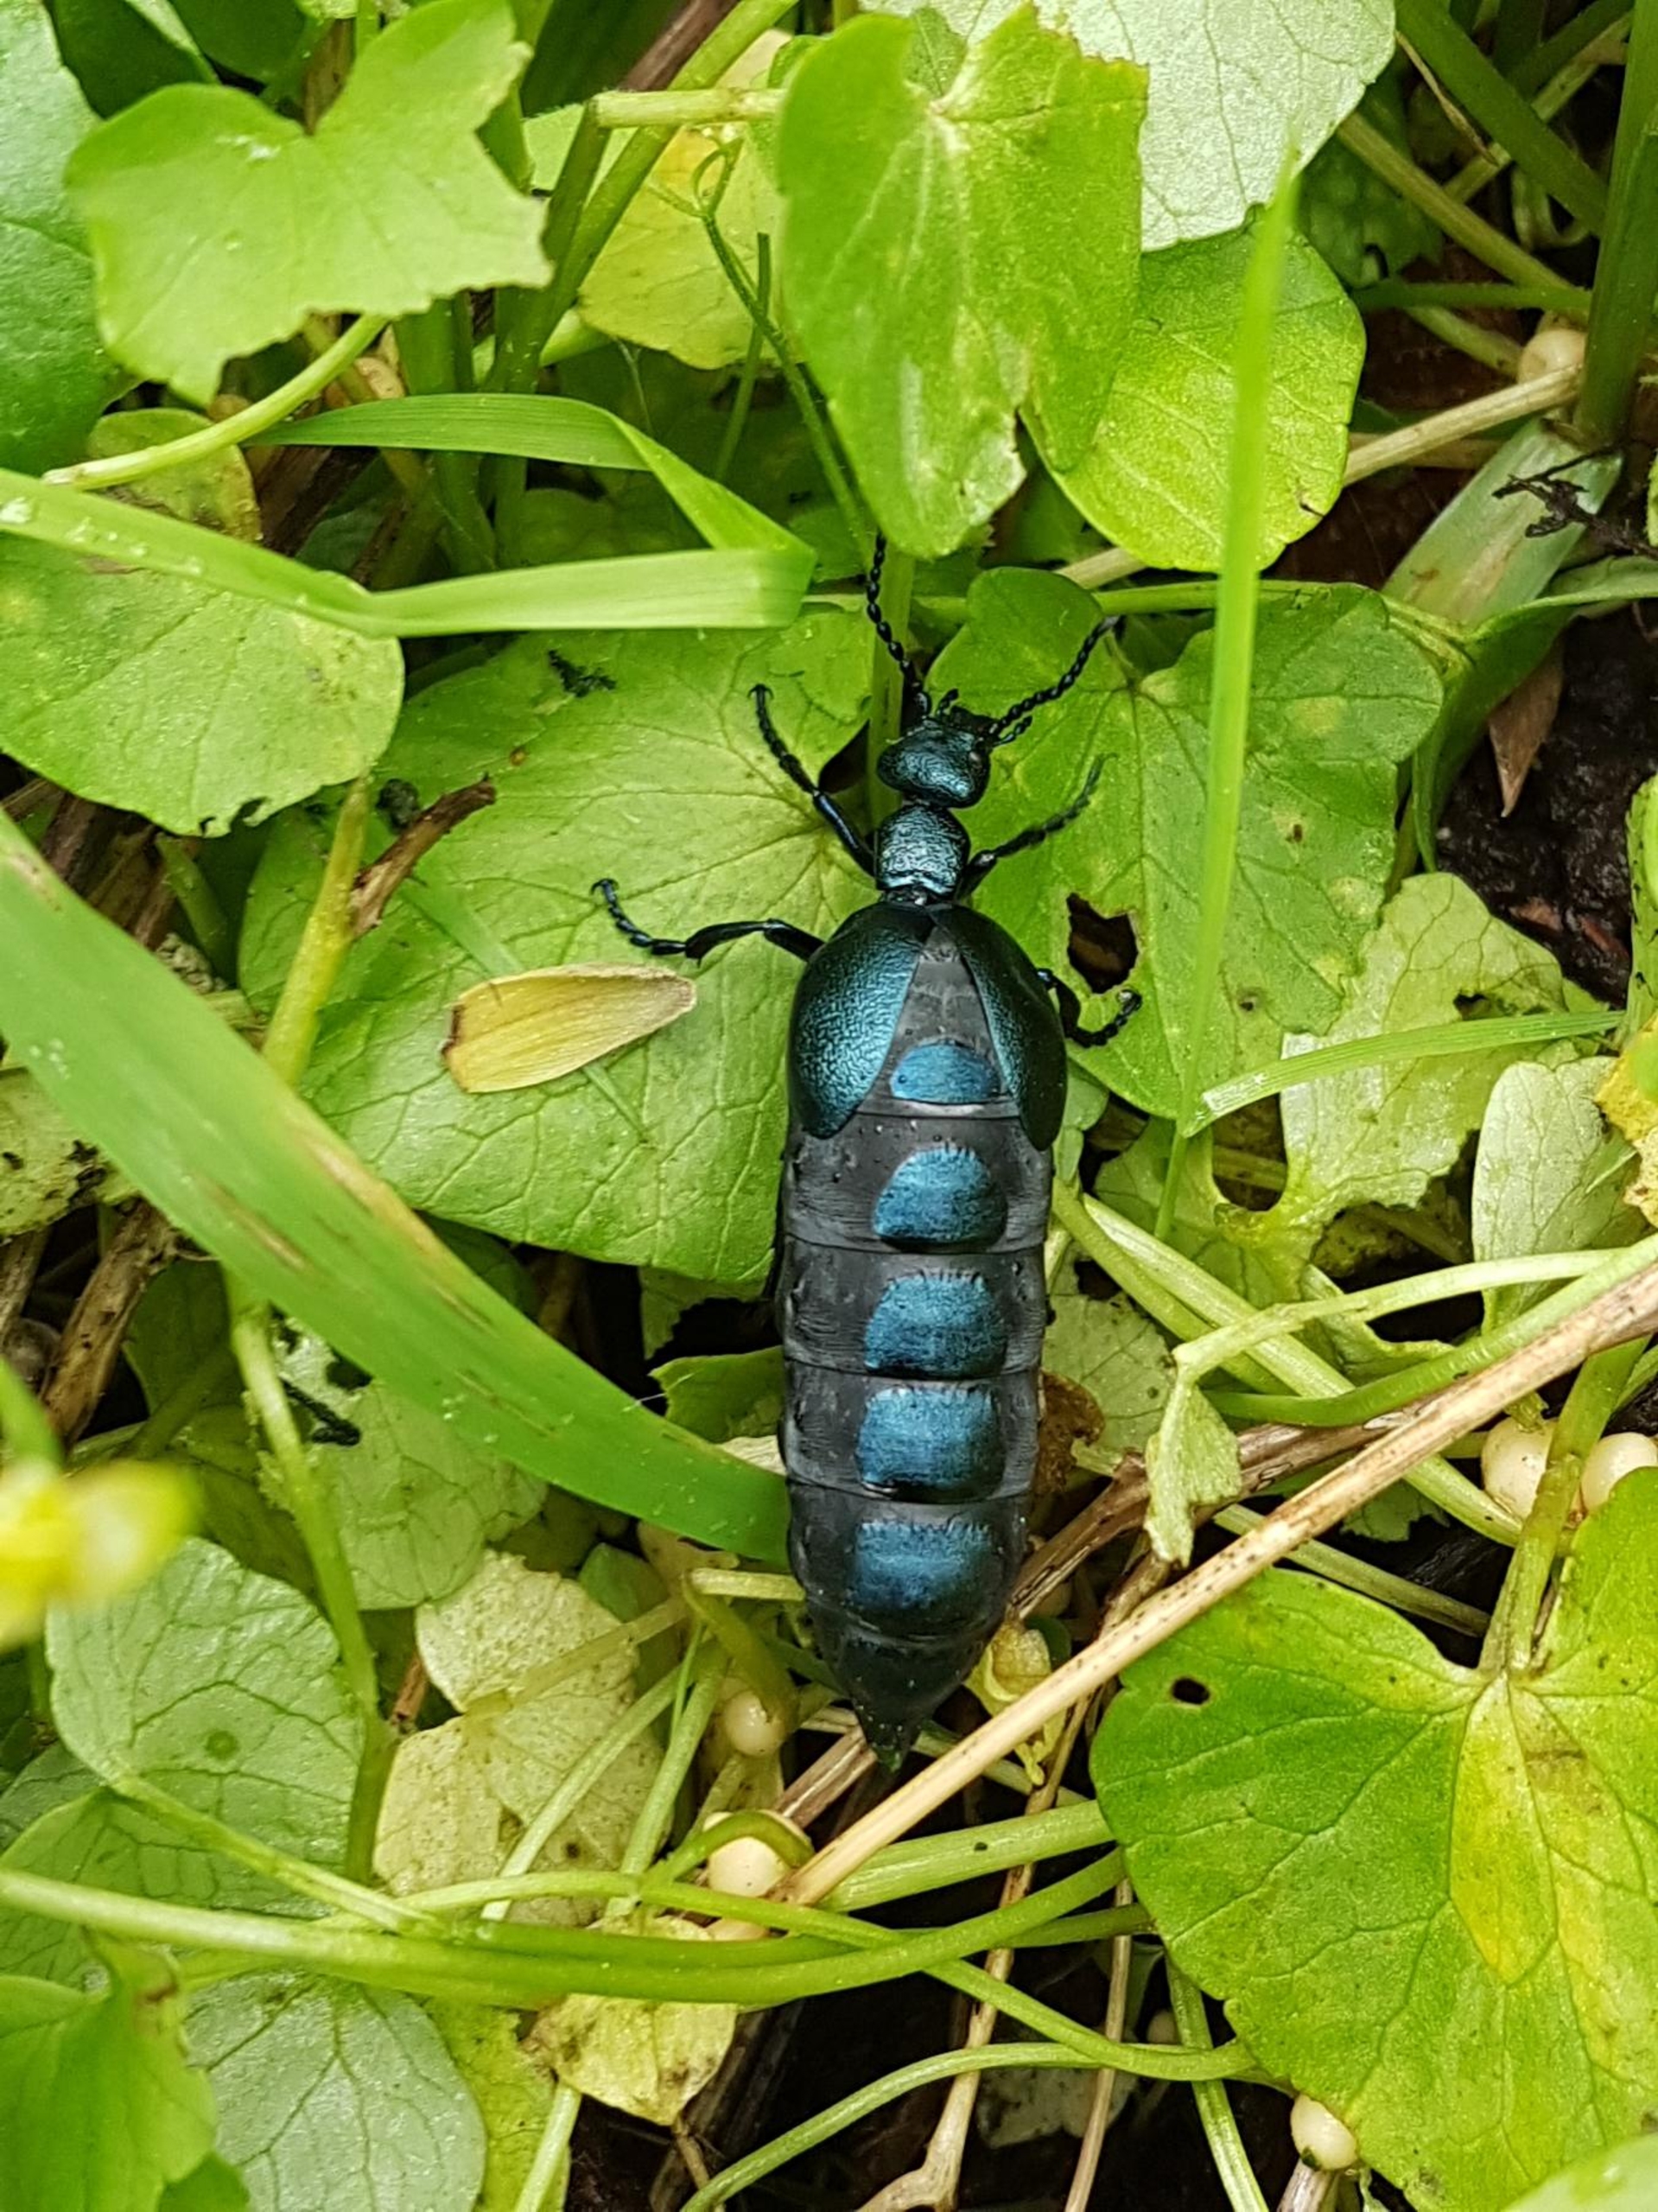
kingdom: Animalia
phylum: Arthropoda
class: Insecta
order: Coleoptera
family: Meloidae
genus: Meloe
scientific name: Meloe violaceus
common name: Blå oliebille
